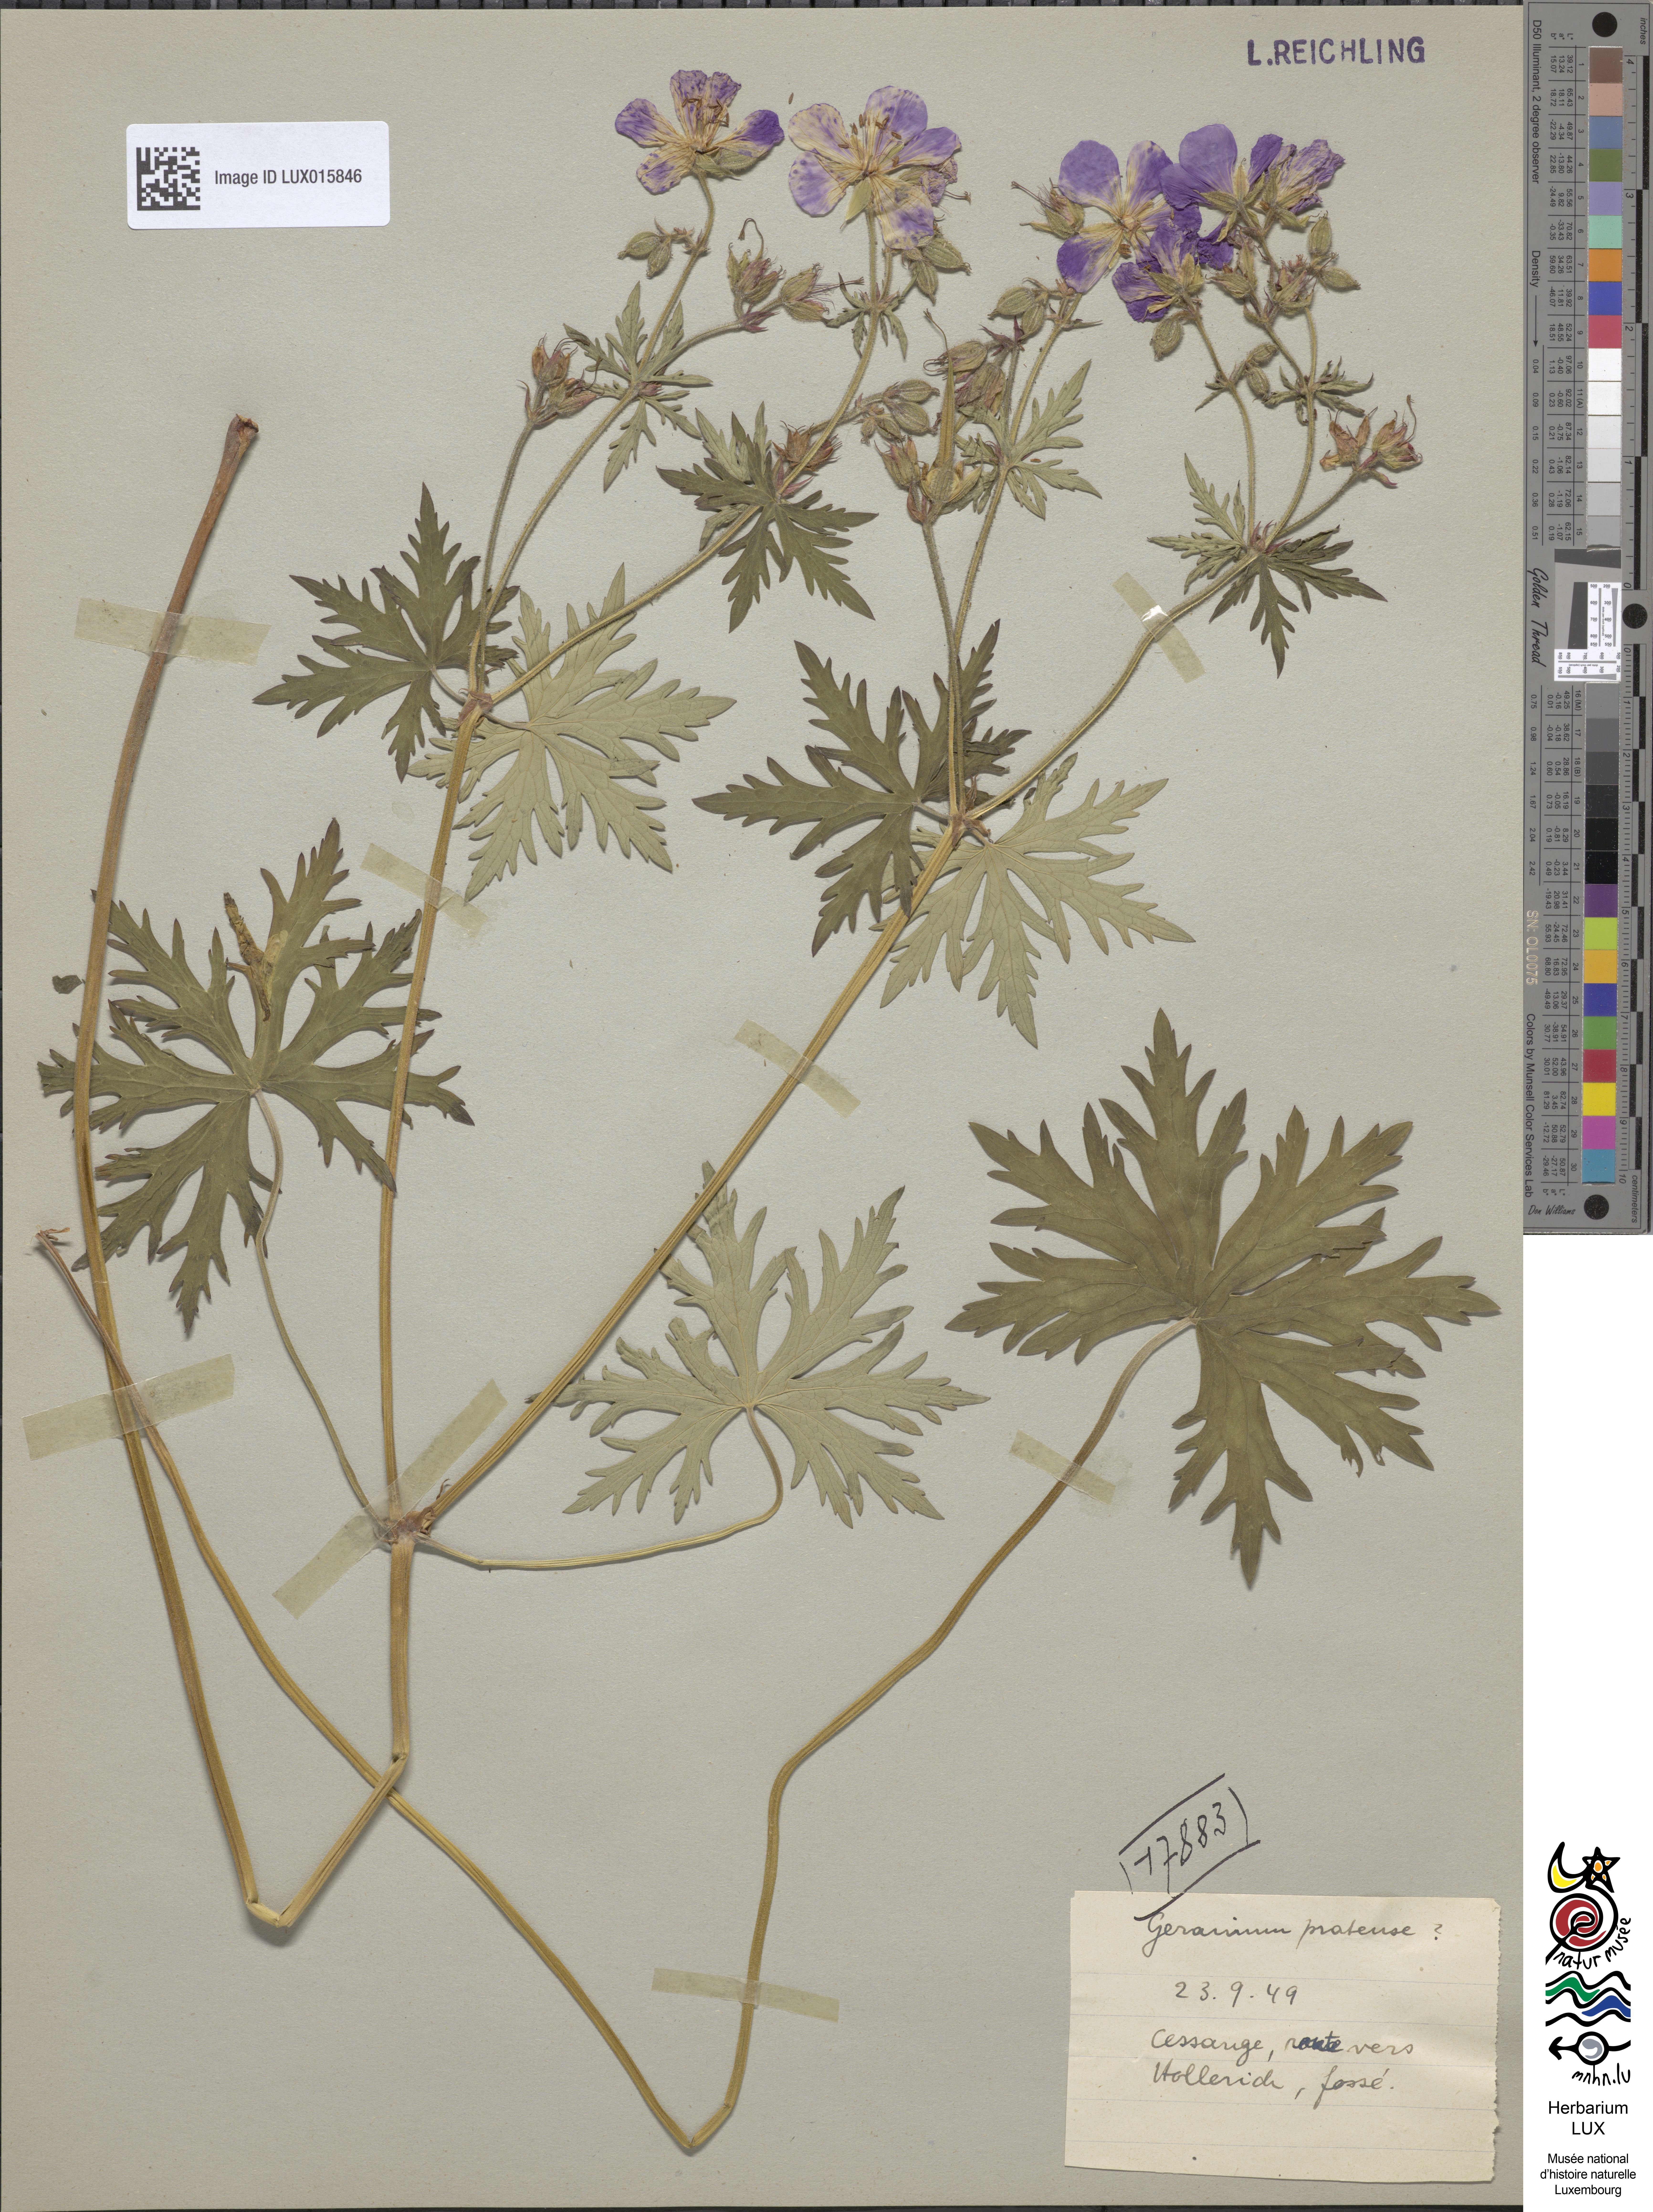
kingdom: Plantae
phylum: Tracheophyta
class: Magnoliopsida
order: Geraniales
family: Geraniaceae
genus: Geranium
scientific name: Geranium pratense
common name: Meadow crane's-bill
